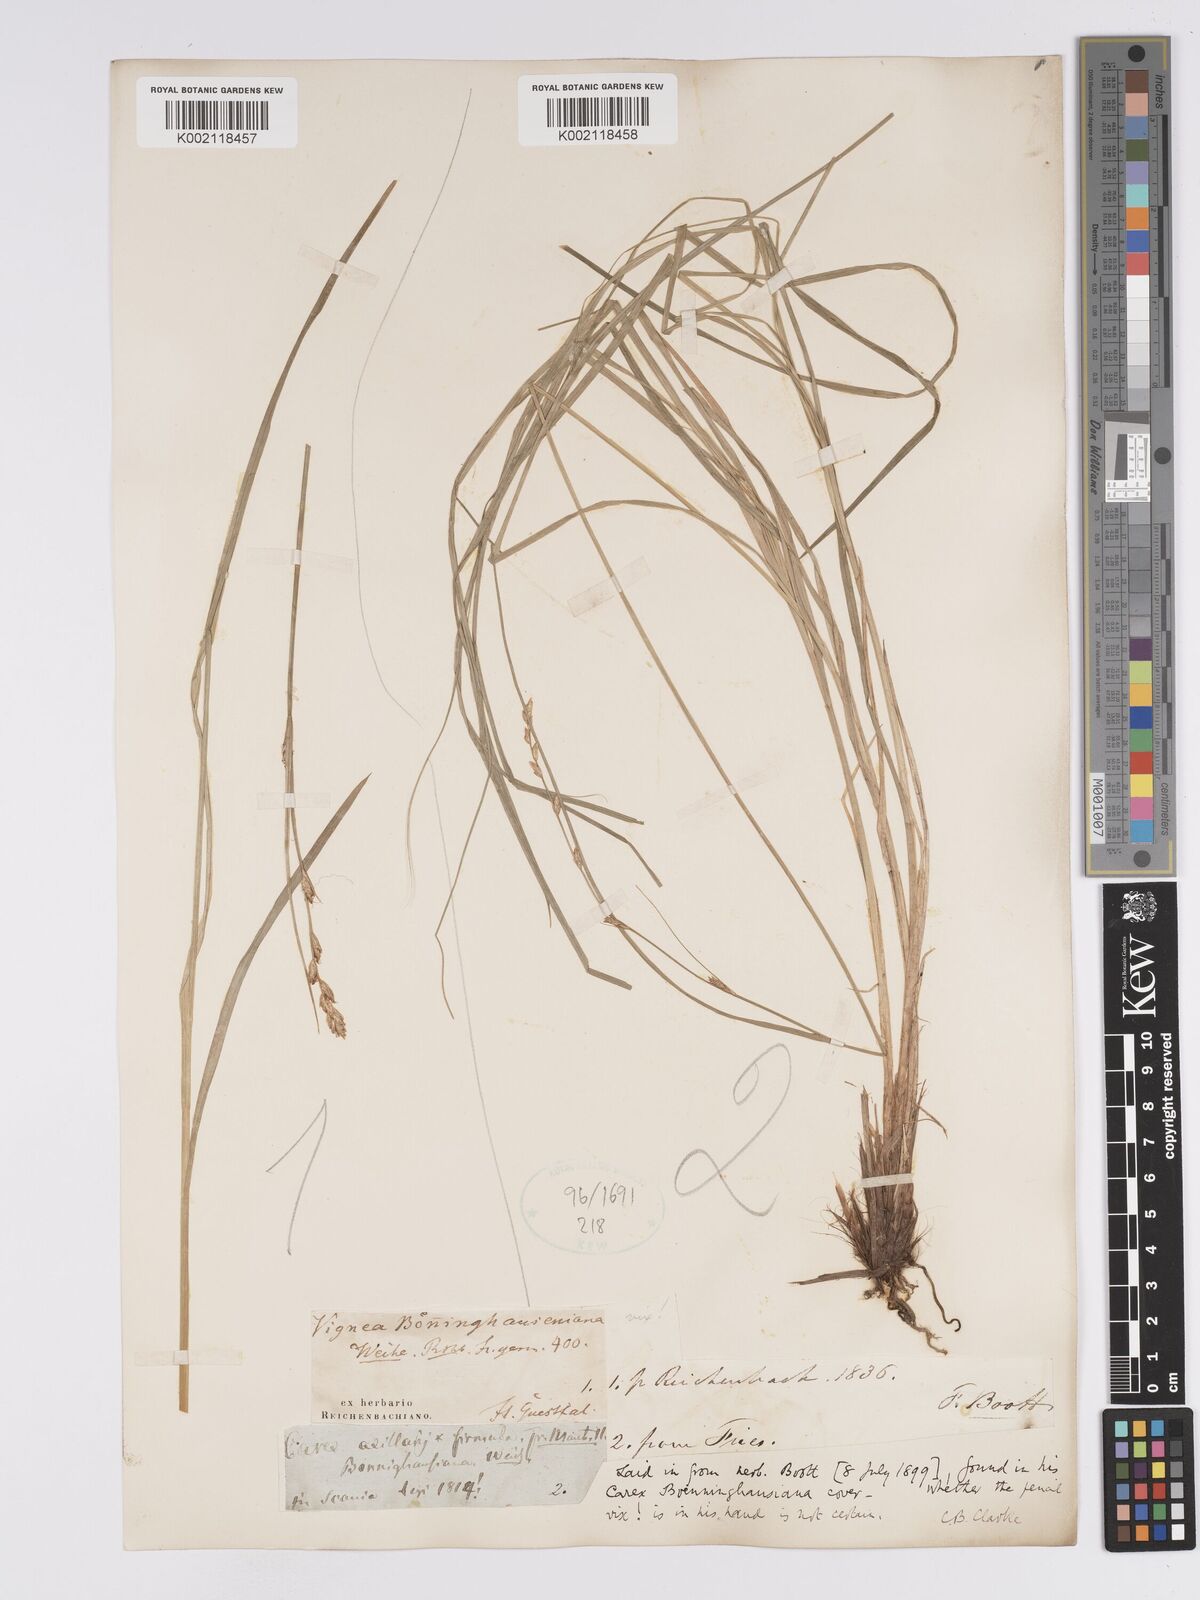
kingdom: Plantae
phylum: Tracheophyta
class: Liliopsida
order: Poales
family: Cyperaceae
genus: Carex
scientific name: Carex boenninghausiana
